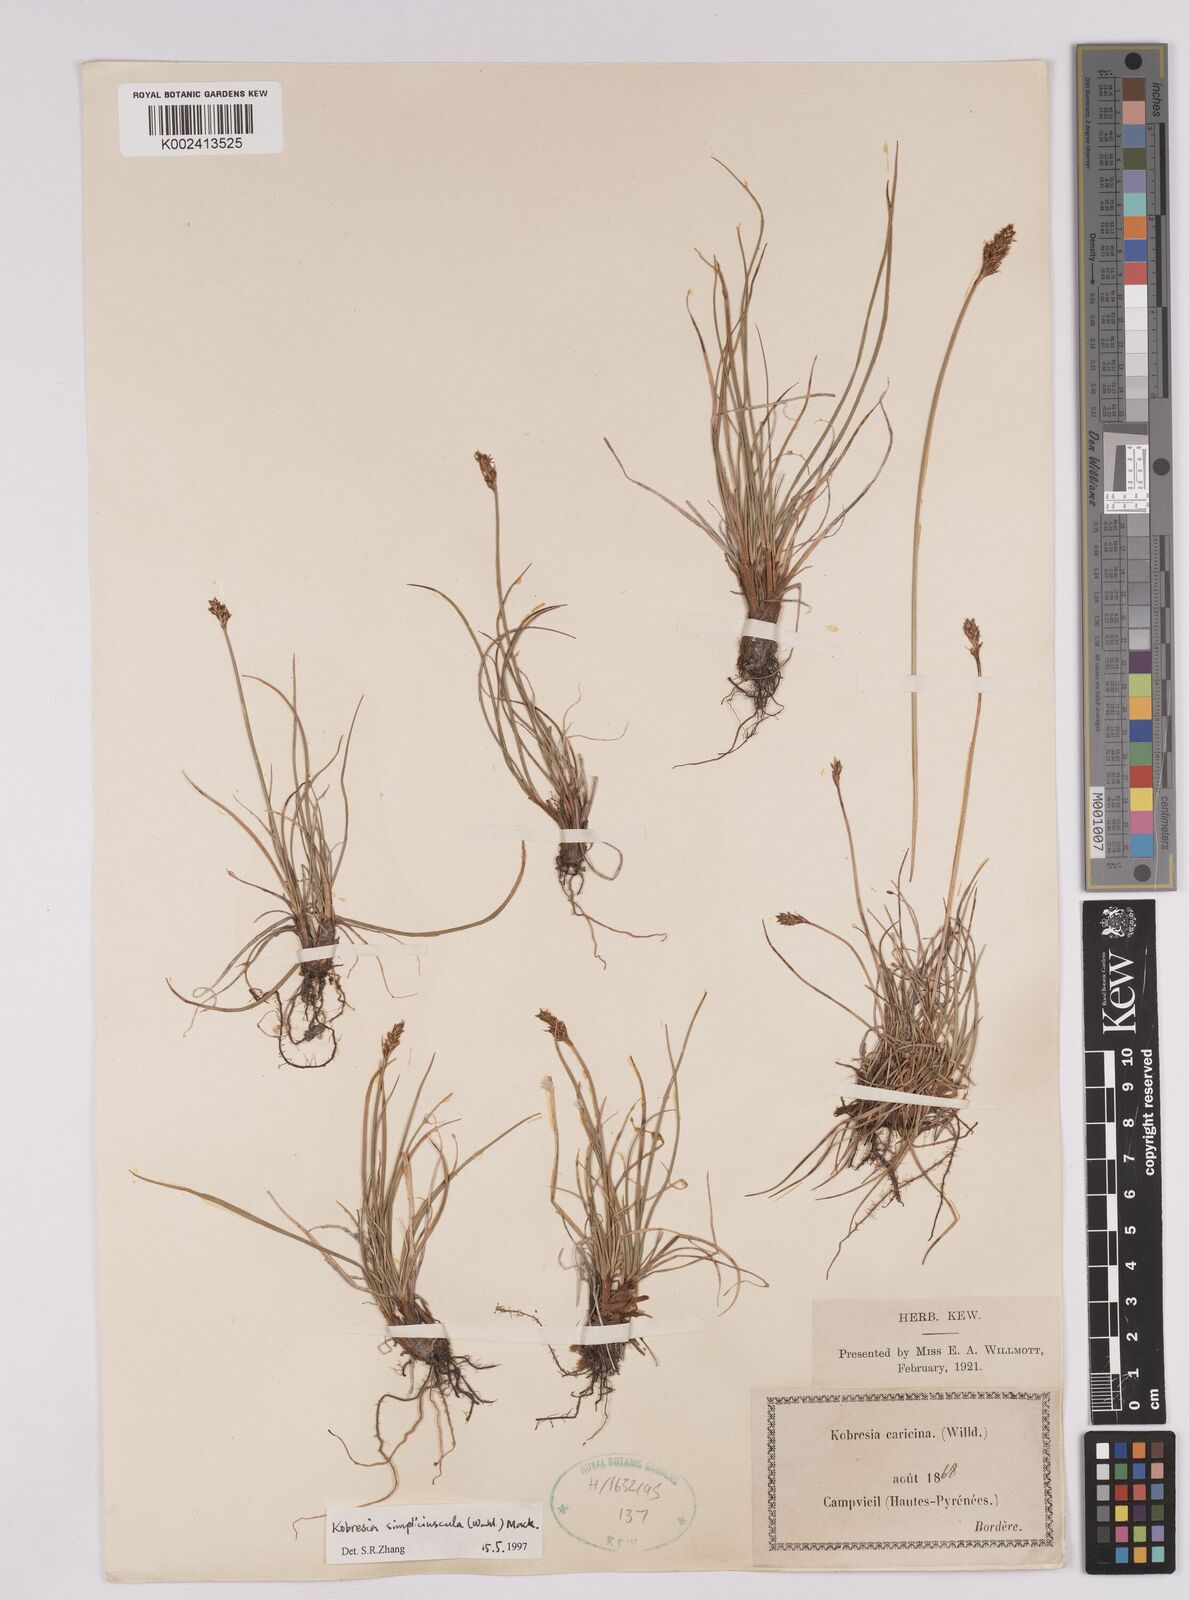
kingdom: Plantae
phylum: Tracheophyta
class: Liliopsida
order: Poales
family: Cyperaceae
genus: Carex
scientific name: Carex simpliciuscula
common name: Simple bog sedge
